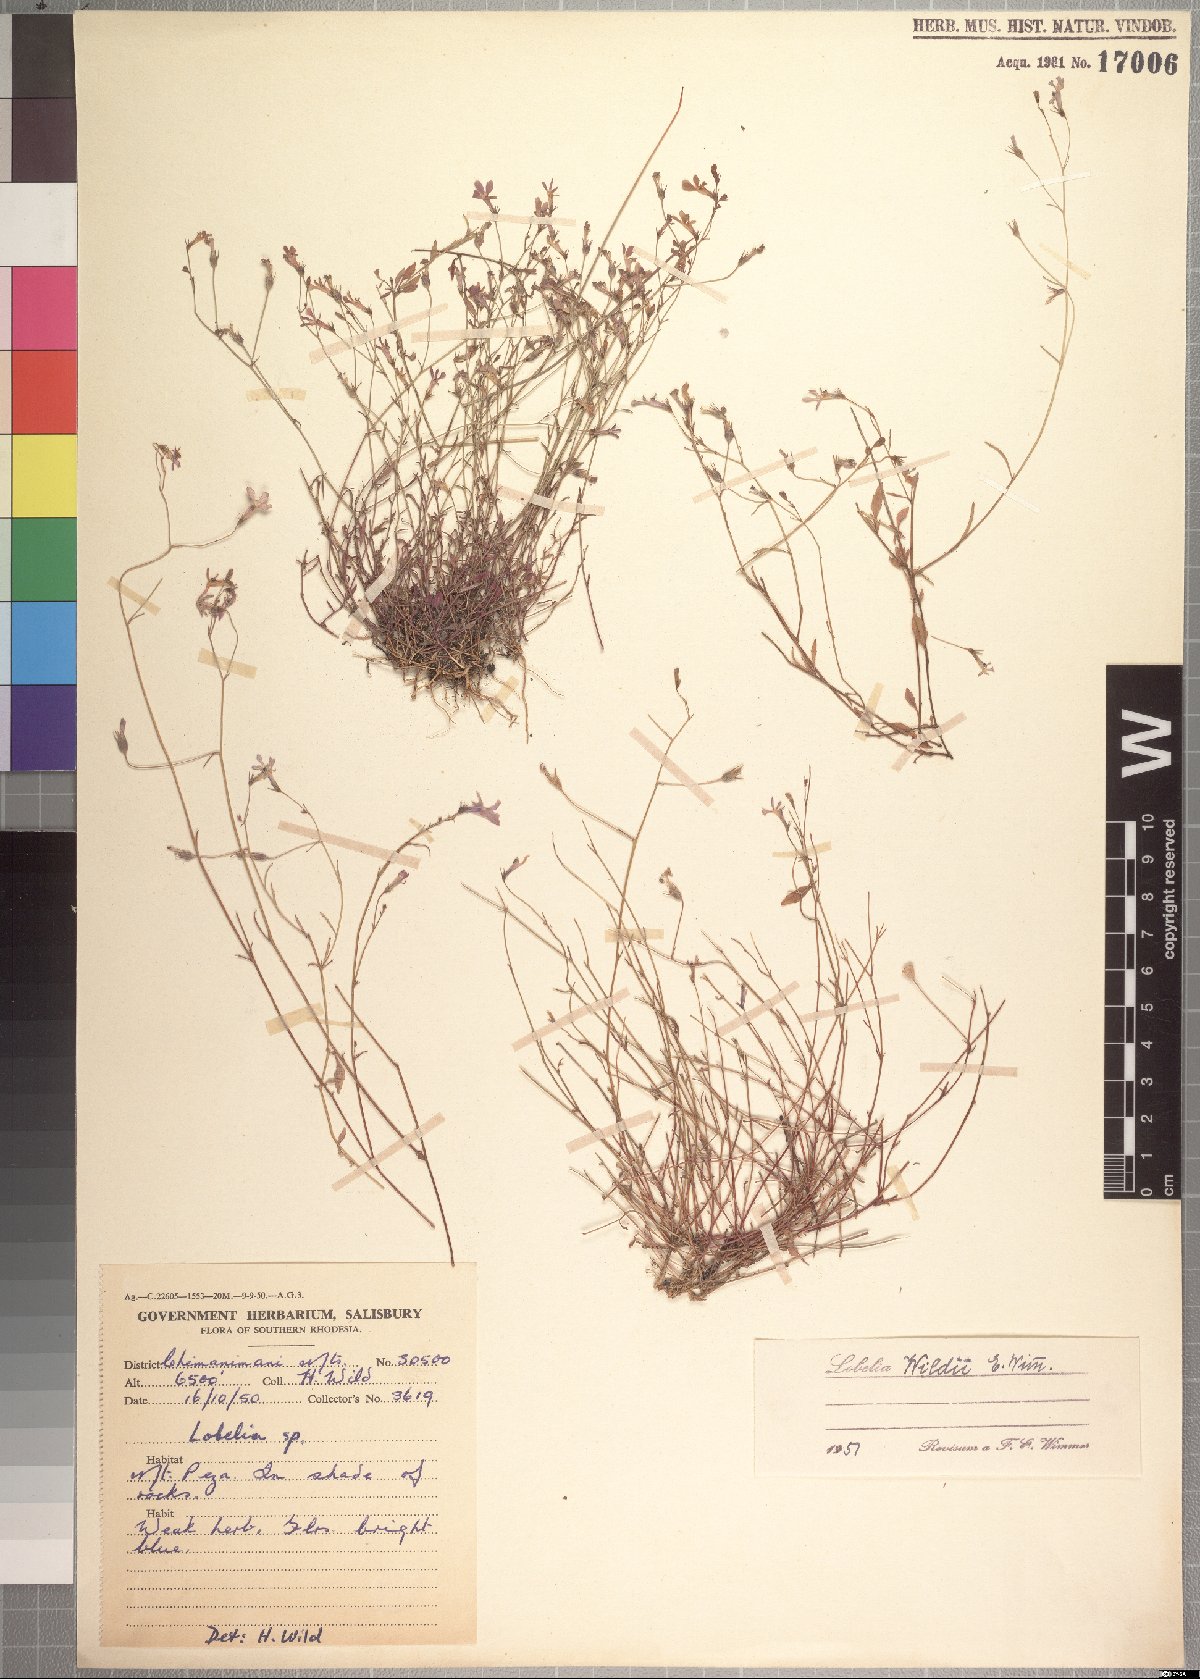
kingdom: Plantae
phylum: Tracheophyta
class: Magnoliopsida
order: Asterales
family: Campanulaceae
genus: Lobelia
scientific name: Lobelia erinus
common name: Edging lobelia
